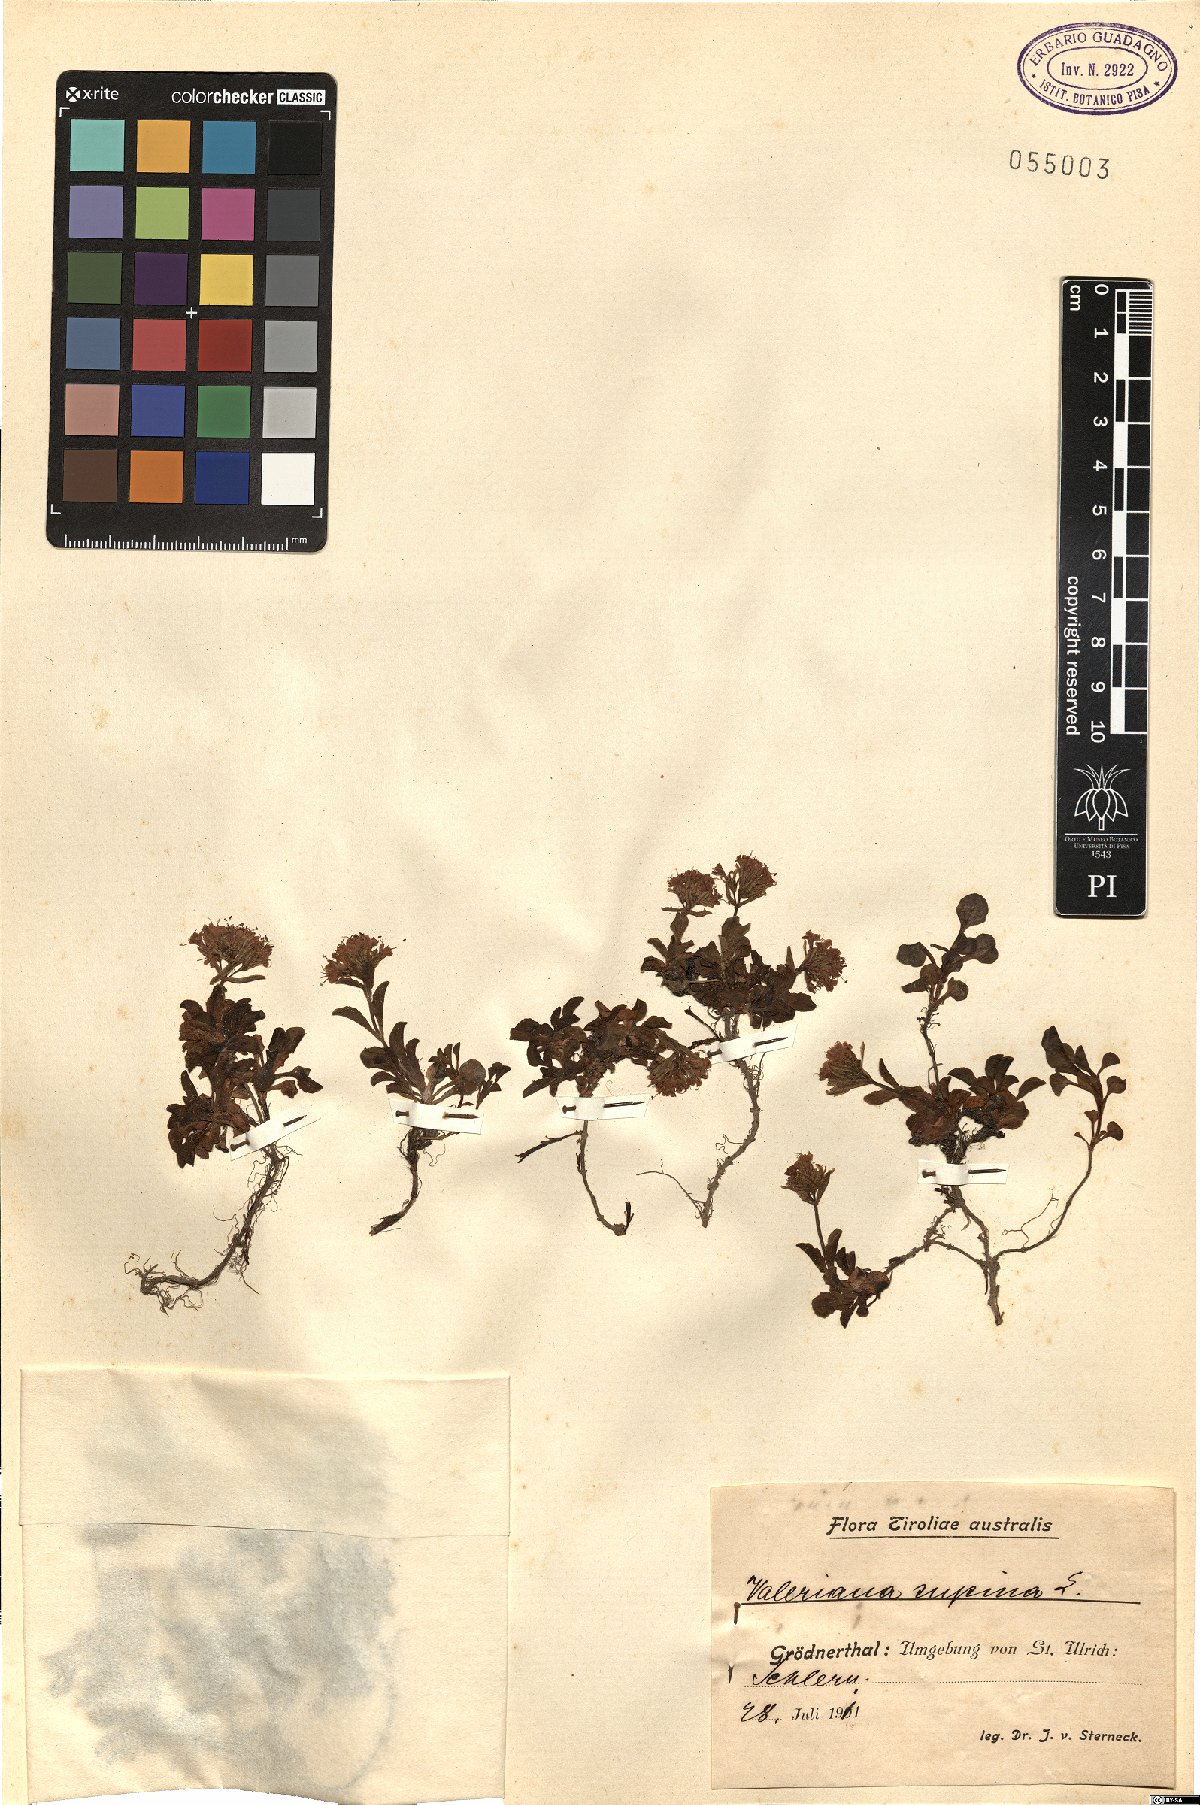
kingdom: Plantae
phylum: Tracheophyta
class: Magnoliopsida
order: Dipsacales
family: Caprifoliaceae
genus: Valeriana
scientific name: Valeriana supina
